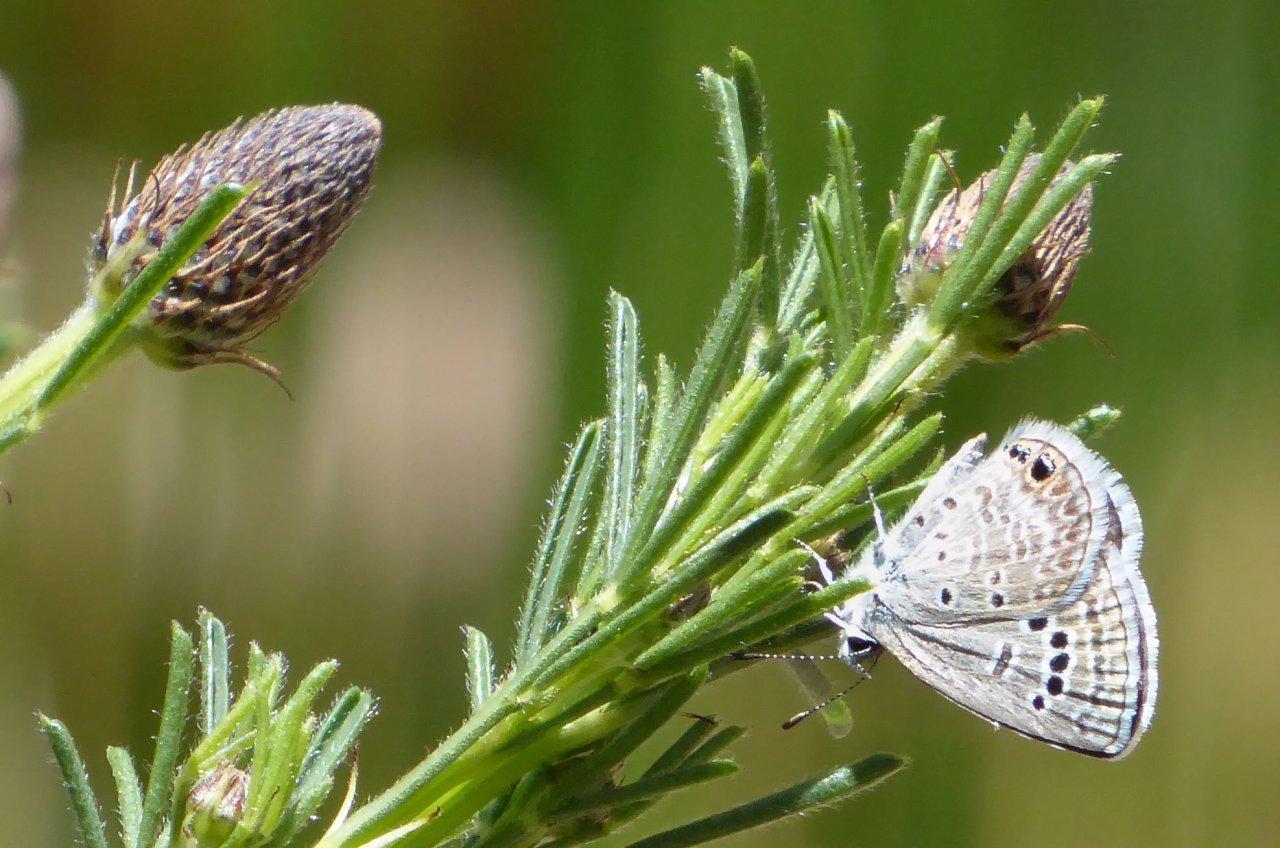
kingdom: Animalia
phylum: Arthropoda
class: Insecta
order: Lepidoptera
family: Lycaenidae
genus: Echinargus
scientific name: Echinargus isola
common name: Reakirt's Blue
